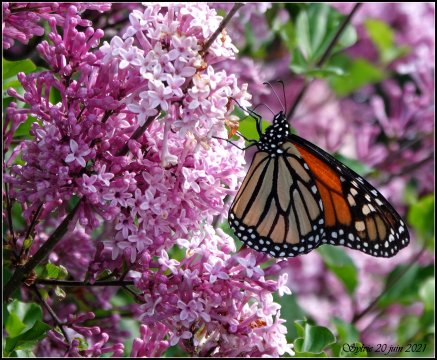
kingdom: Animalia
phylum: Arthropoda
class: Insecta
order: Lepidoptera
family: Nymphalidae
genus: Danaus
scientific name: Danaus plexippus
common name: Monarch
